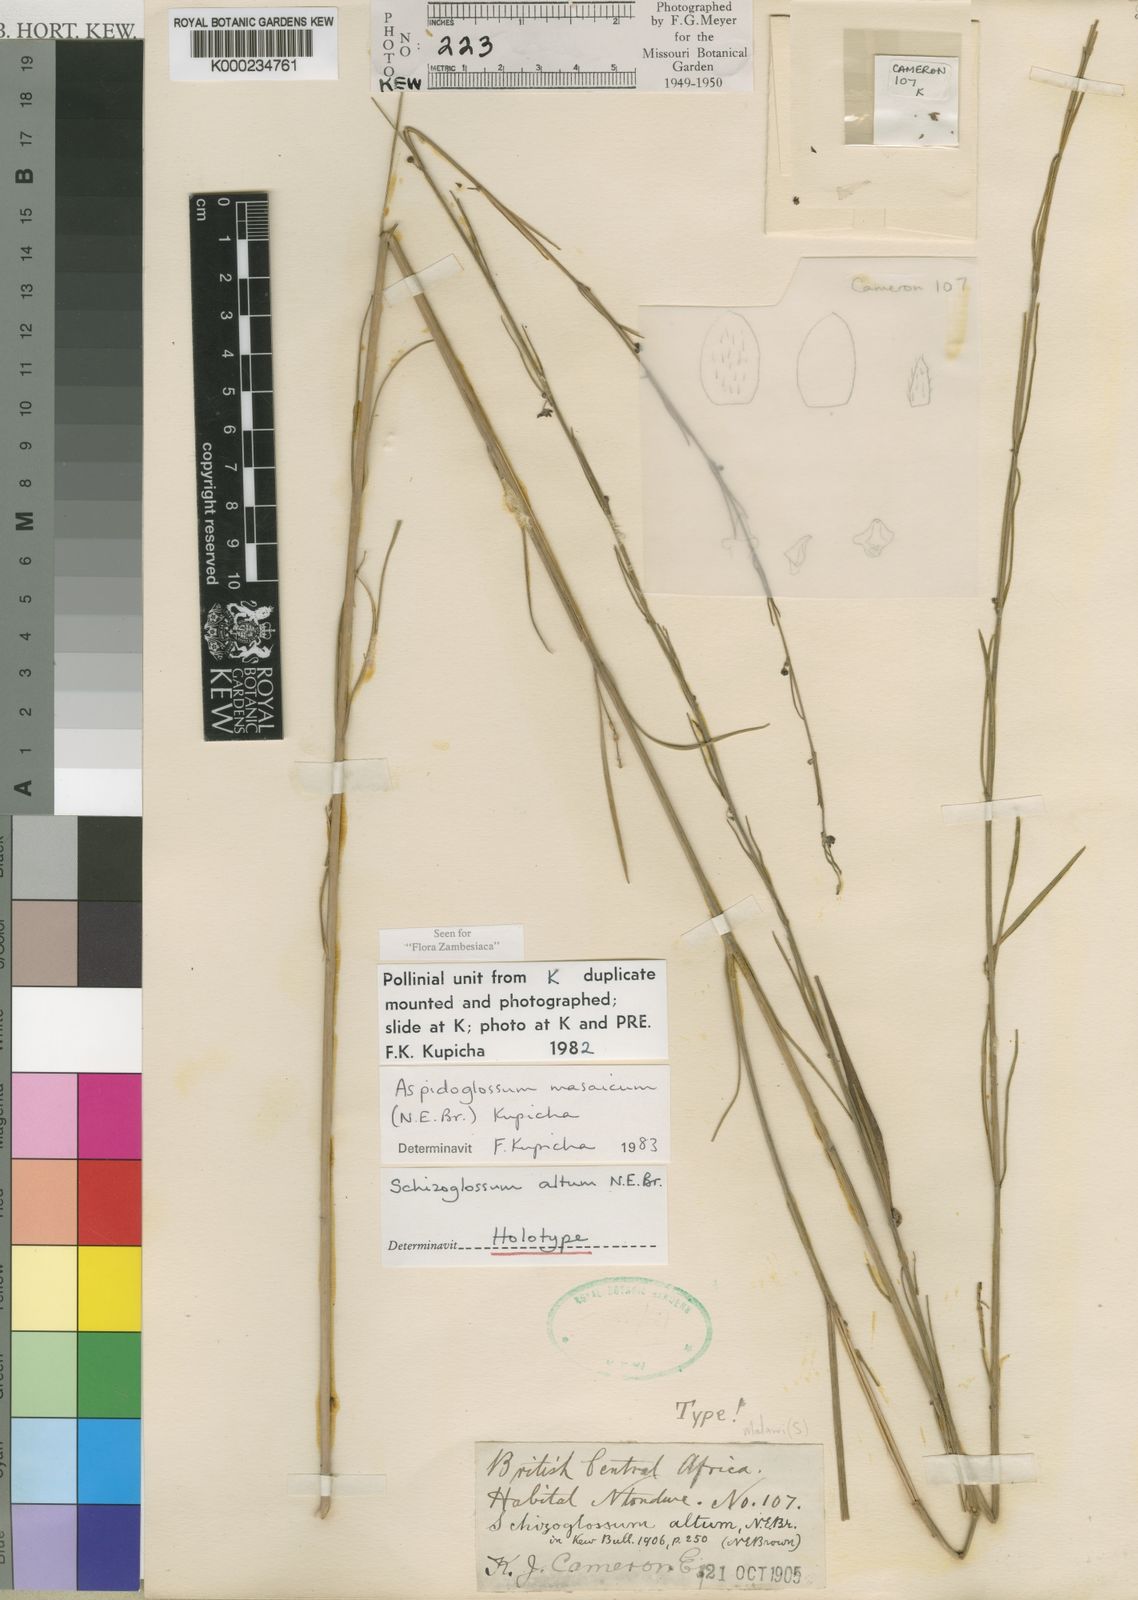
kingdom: Plantae
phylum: Tracheophyta
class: Magnoliopsida
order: Gentianales
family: Apocynaceae
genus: Aspidoglossum
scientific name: Aspidoglossum masaicum
